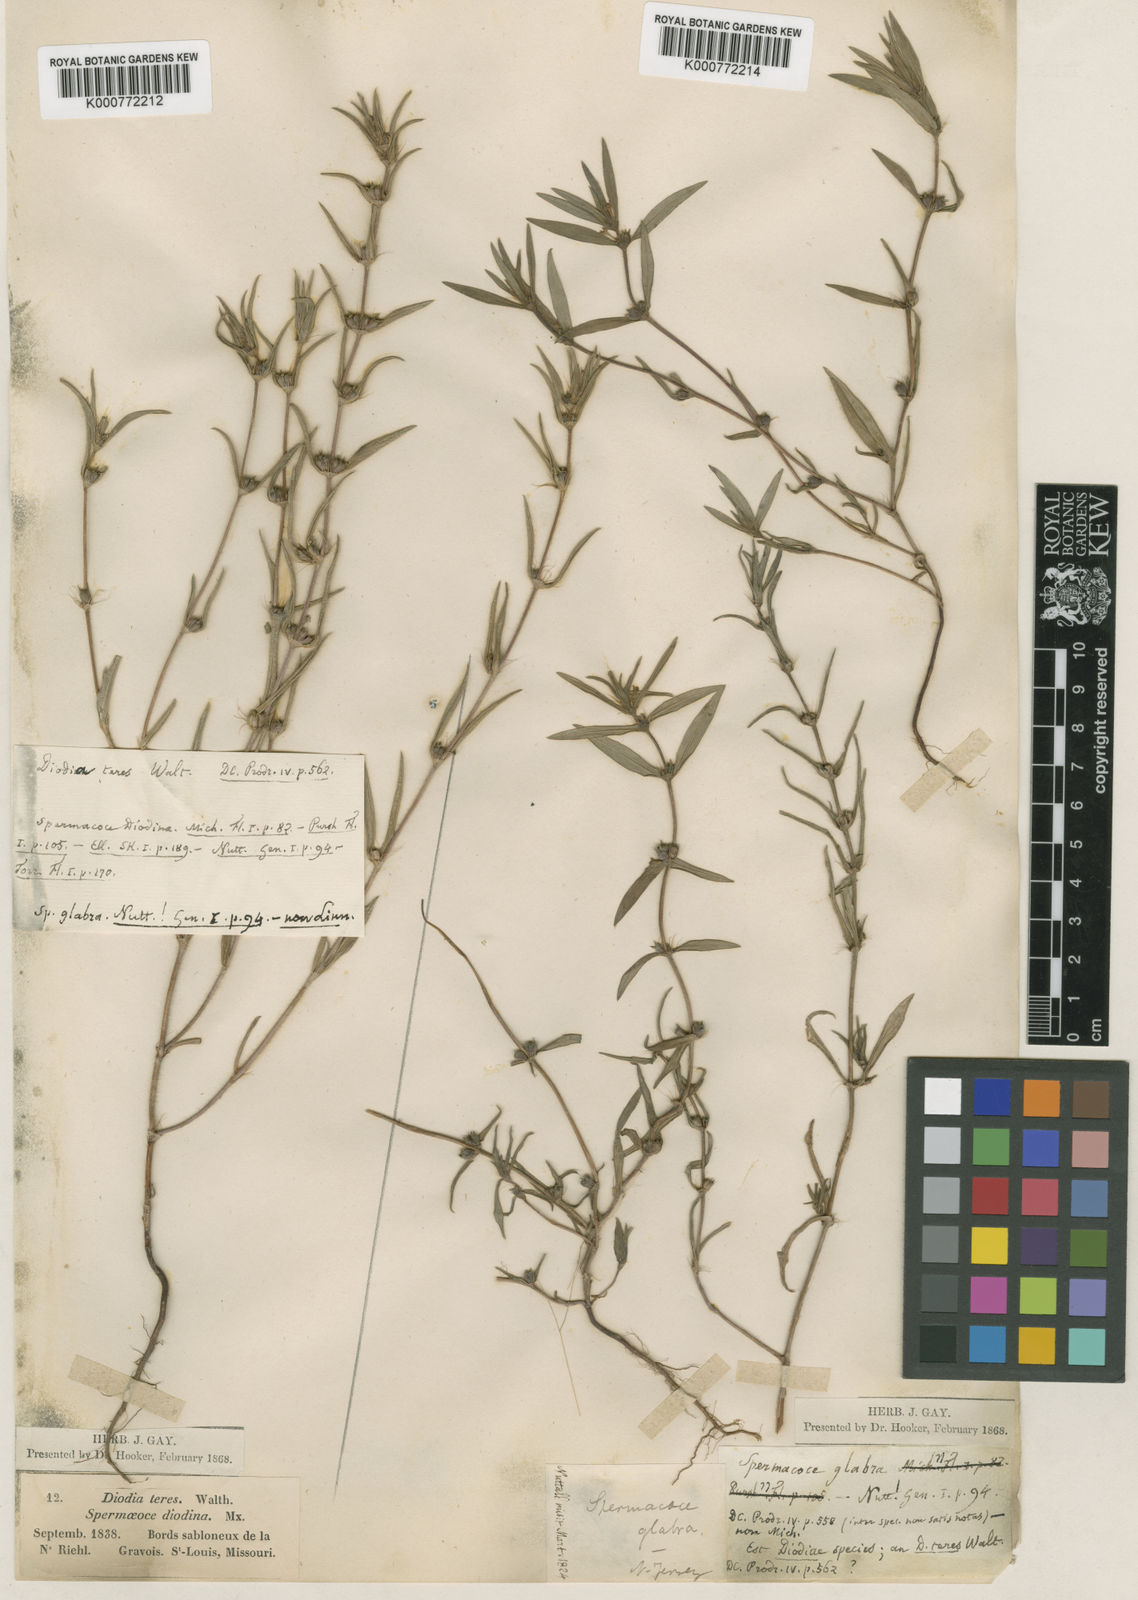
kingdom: Plantae
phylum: Tracheophyta
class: Magnoliopsida
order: Gentianales
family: Rubiaceae
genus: Hexasepalum
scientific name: Hexasepalum teres
